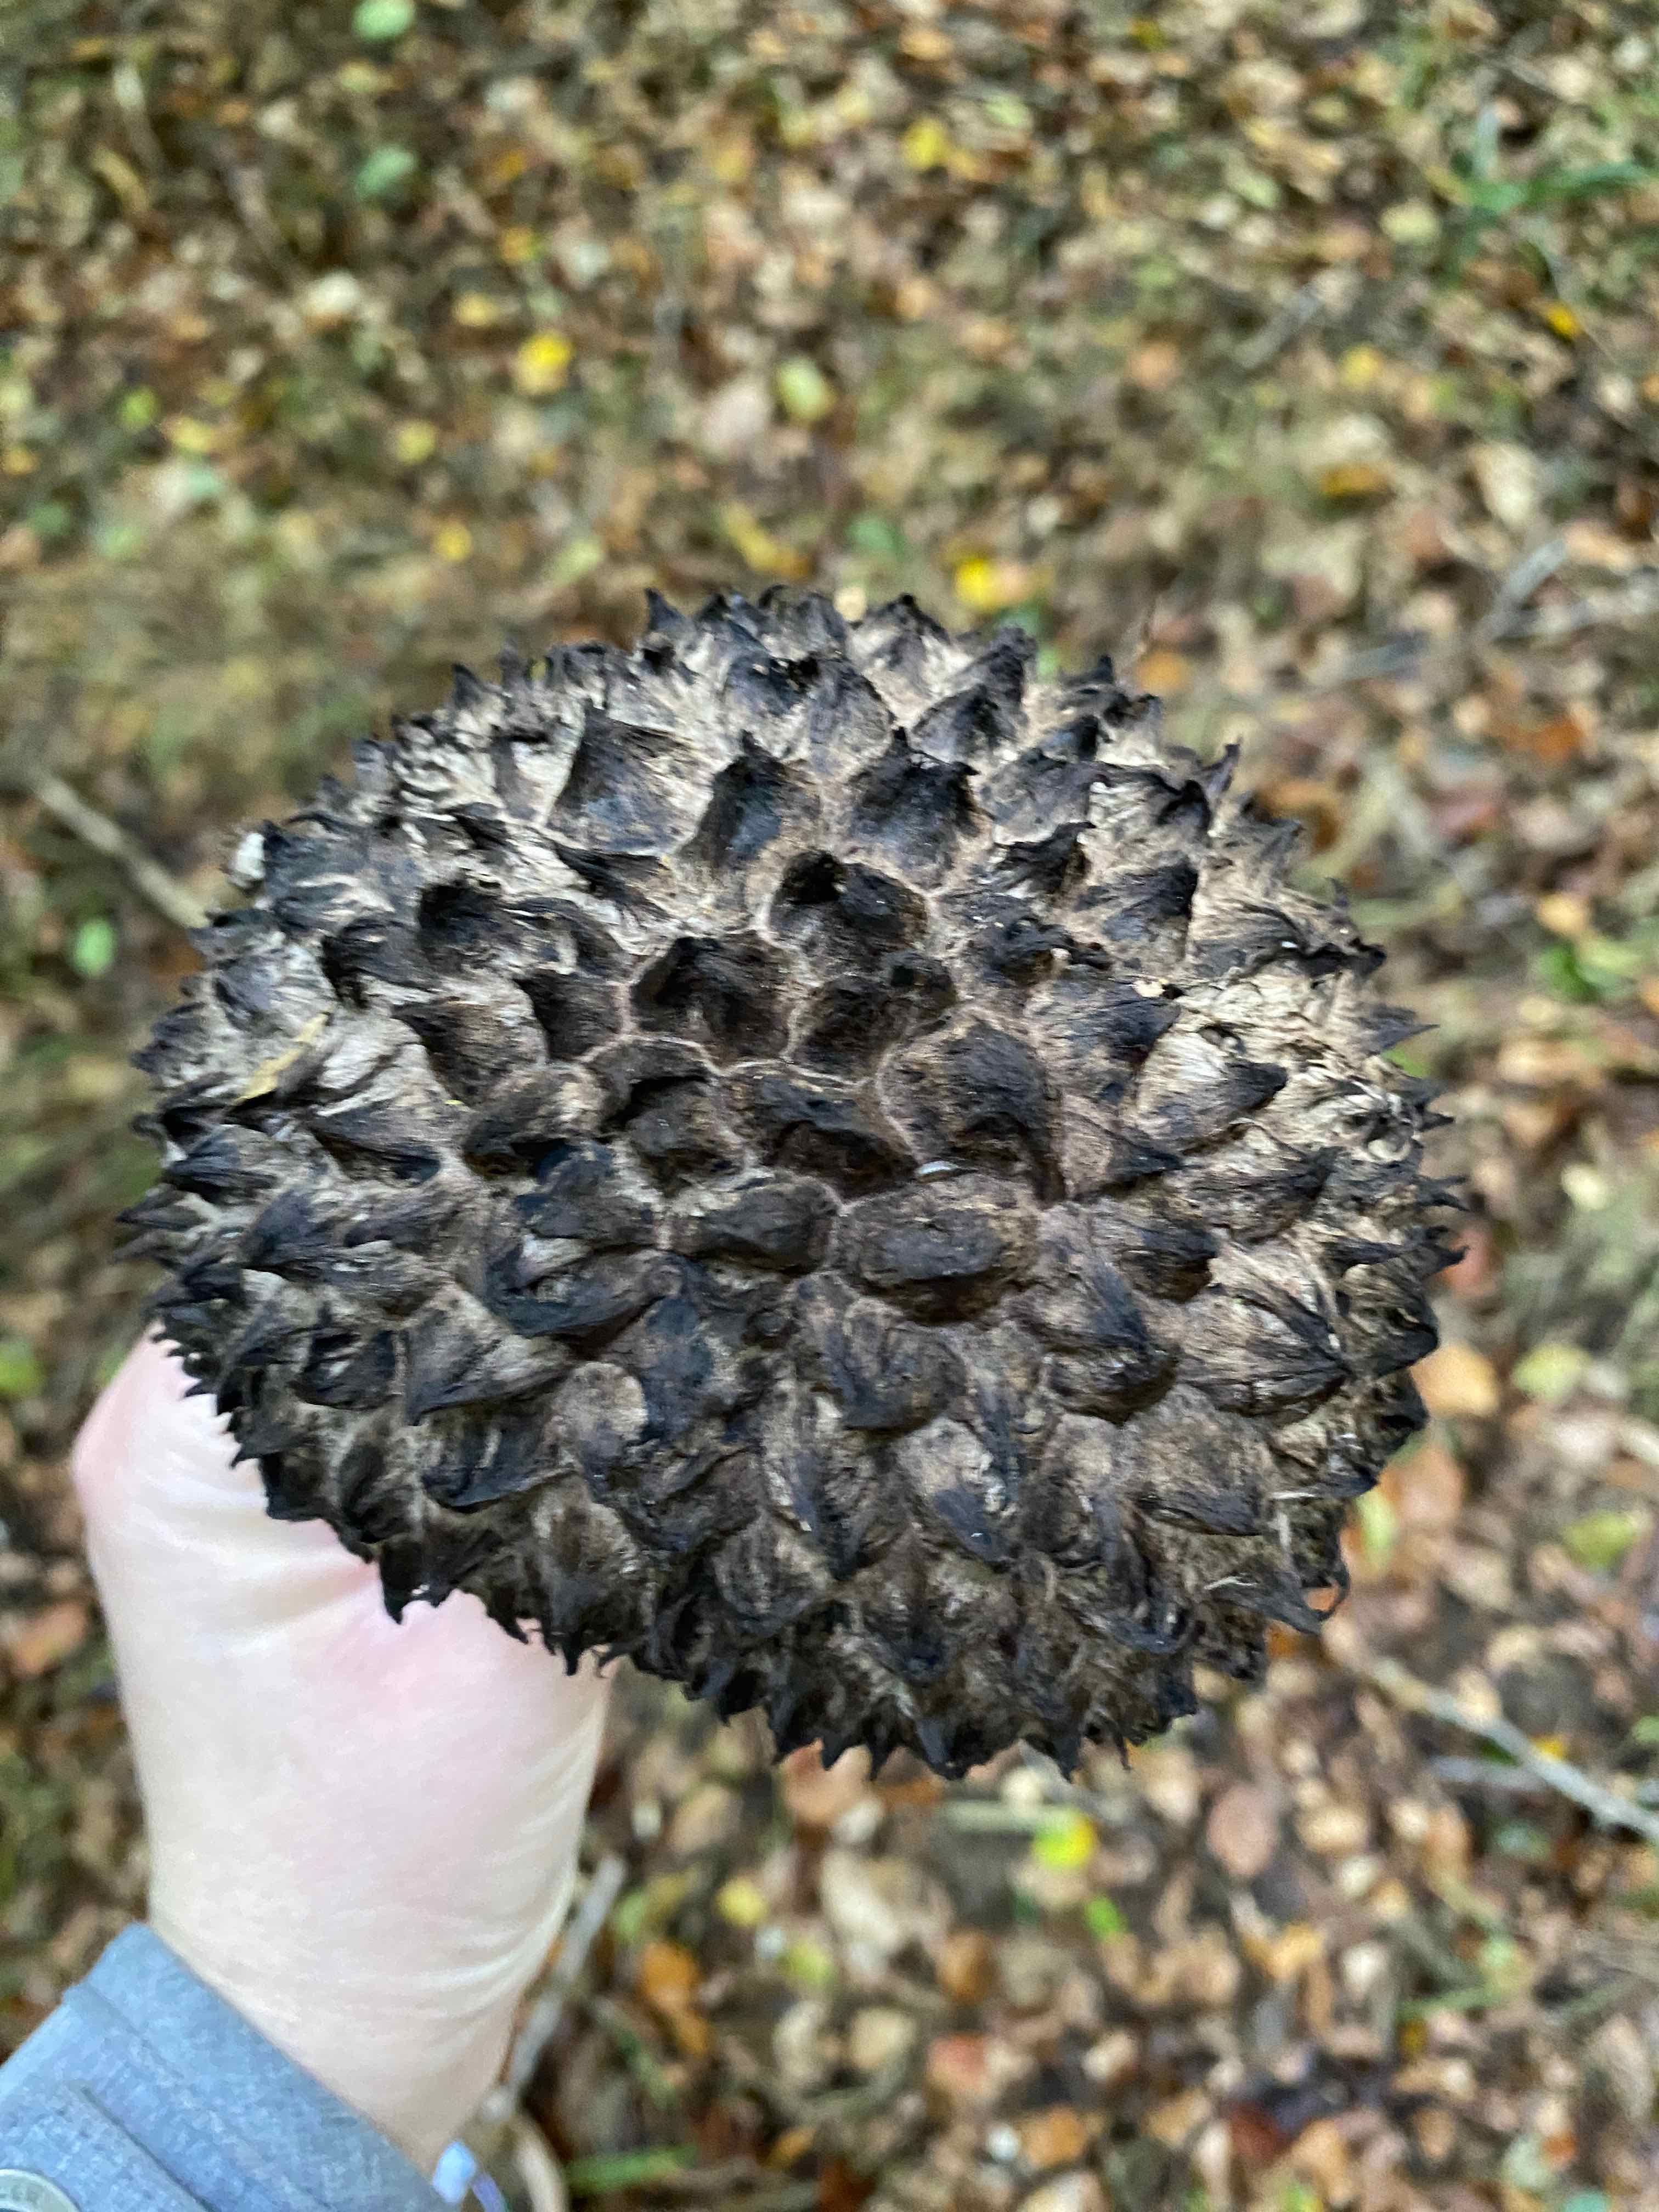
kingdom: Fungi
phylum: Basidiomycota
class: Agaricomycetes
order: Boletales
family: Boletaceae
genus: Strobilomyces
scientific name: Strobilomyces strobilaceus
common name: koglerørhat
